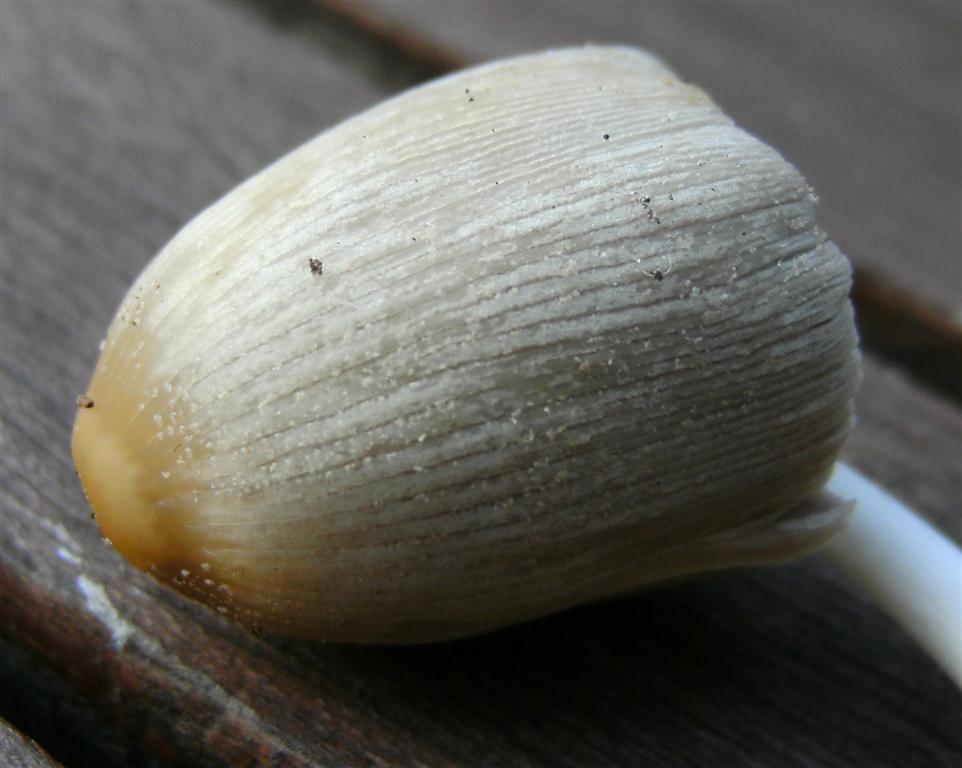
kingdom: Fungi
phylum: Basidiomycota
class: Agaricomycetes
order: Agaricales
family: Psathyrellaceae
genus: Coprinellus
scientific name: Coprinellus domesticus
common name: hus-blækhat
